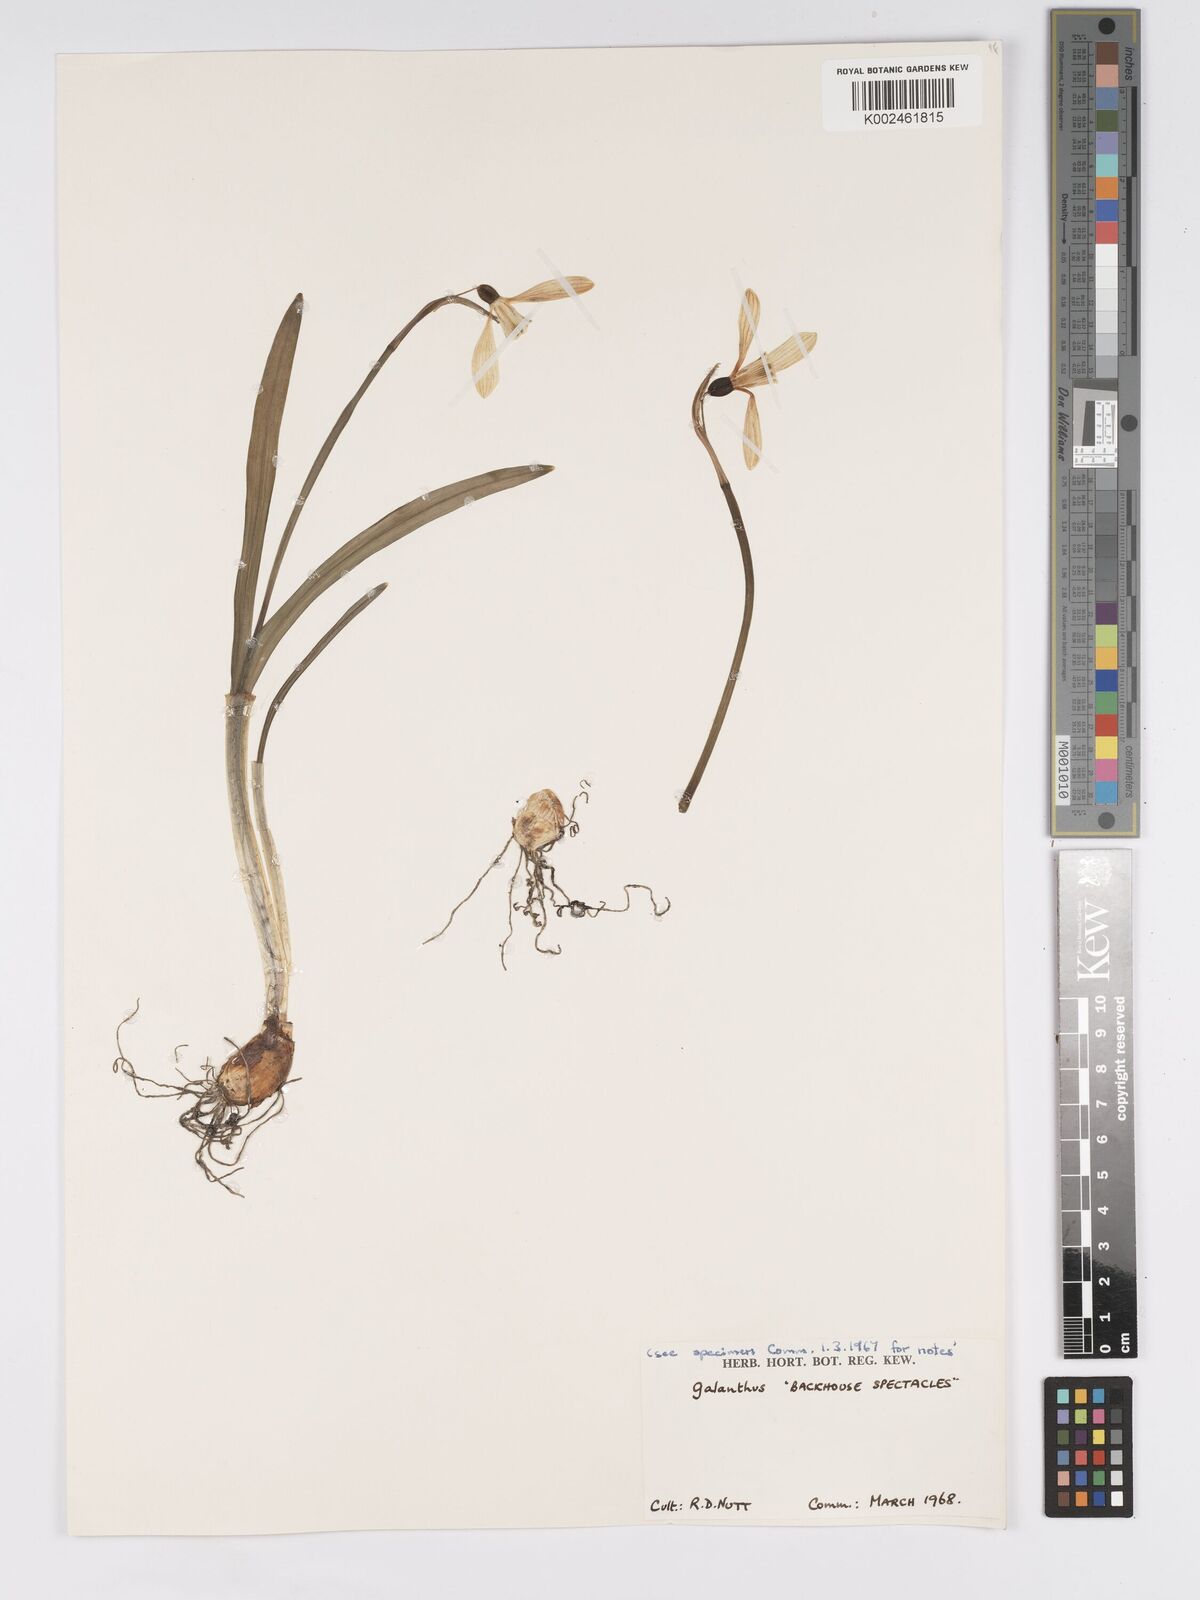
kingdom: Plantae
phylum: Tracheophyta
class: Liliopsida
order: Asparagales
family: Amaryllidaceae
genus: Galanthus
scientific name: Galanthus
